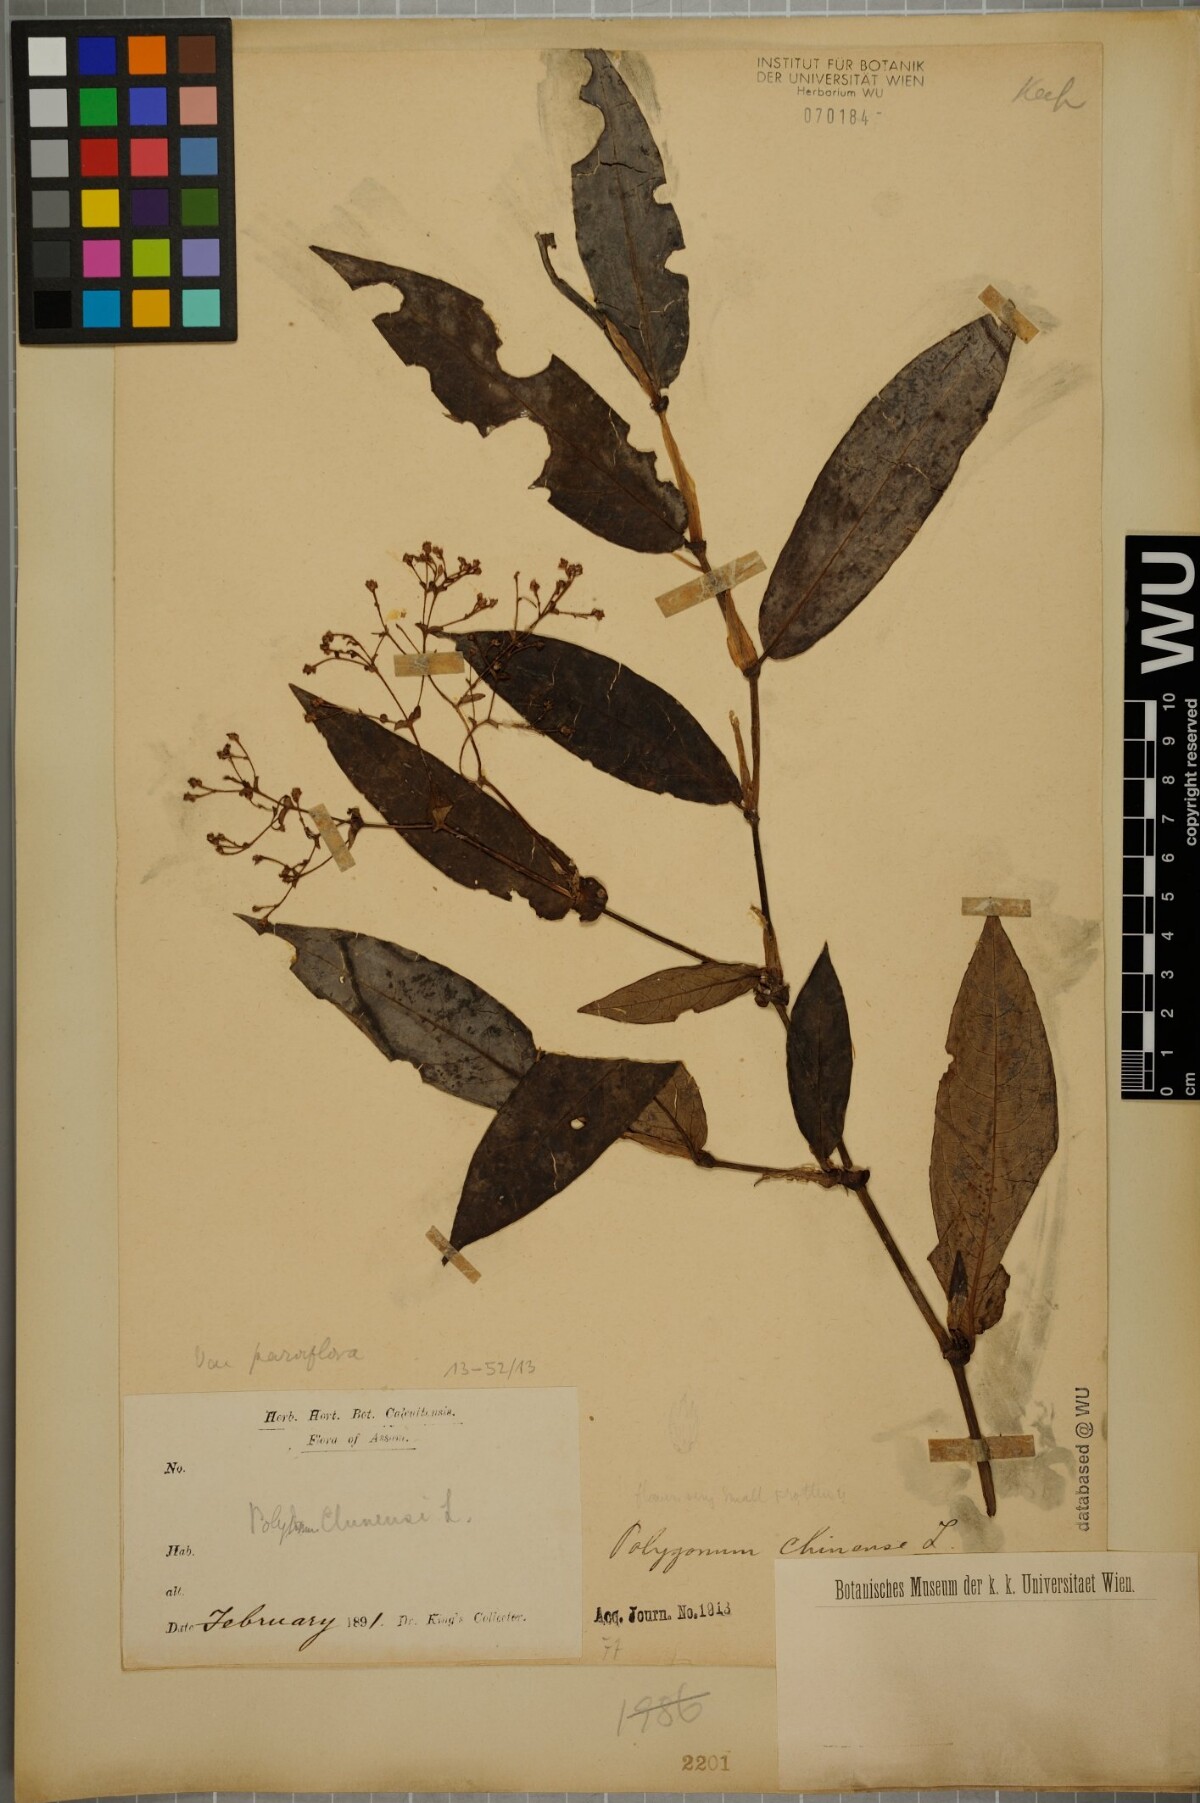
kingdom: Plantae
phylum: Tracheophyta
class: Magnoliopsida
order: Caryophyllales
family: Polygonaceae
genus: Persicaria
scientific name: Persicaria chinensis
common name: Chinese knotweed
